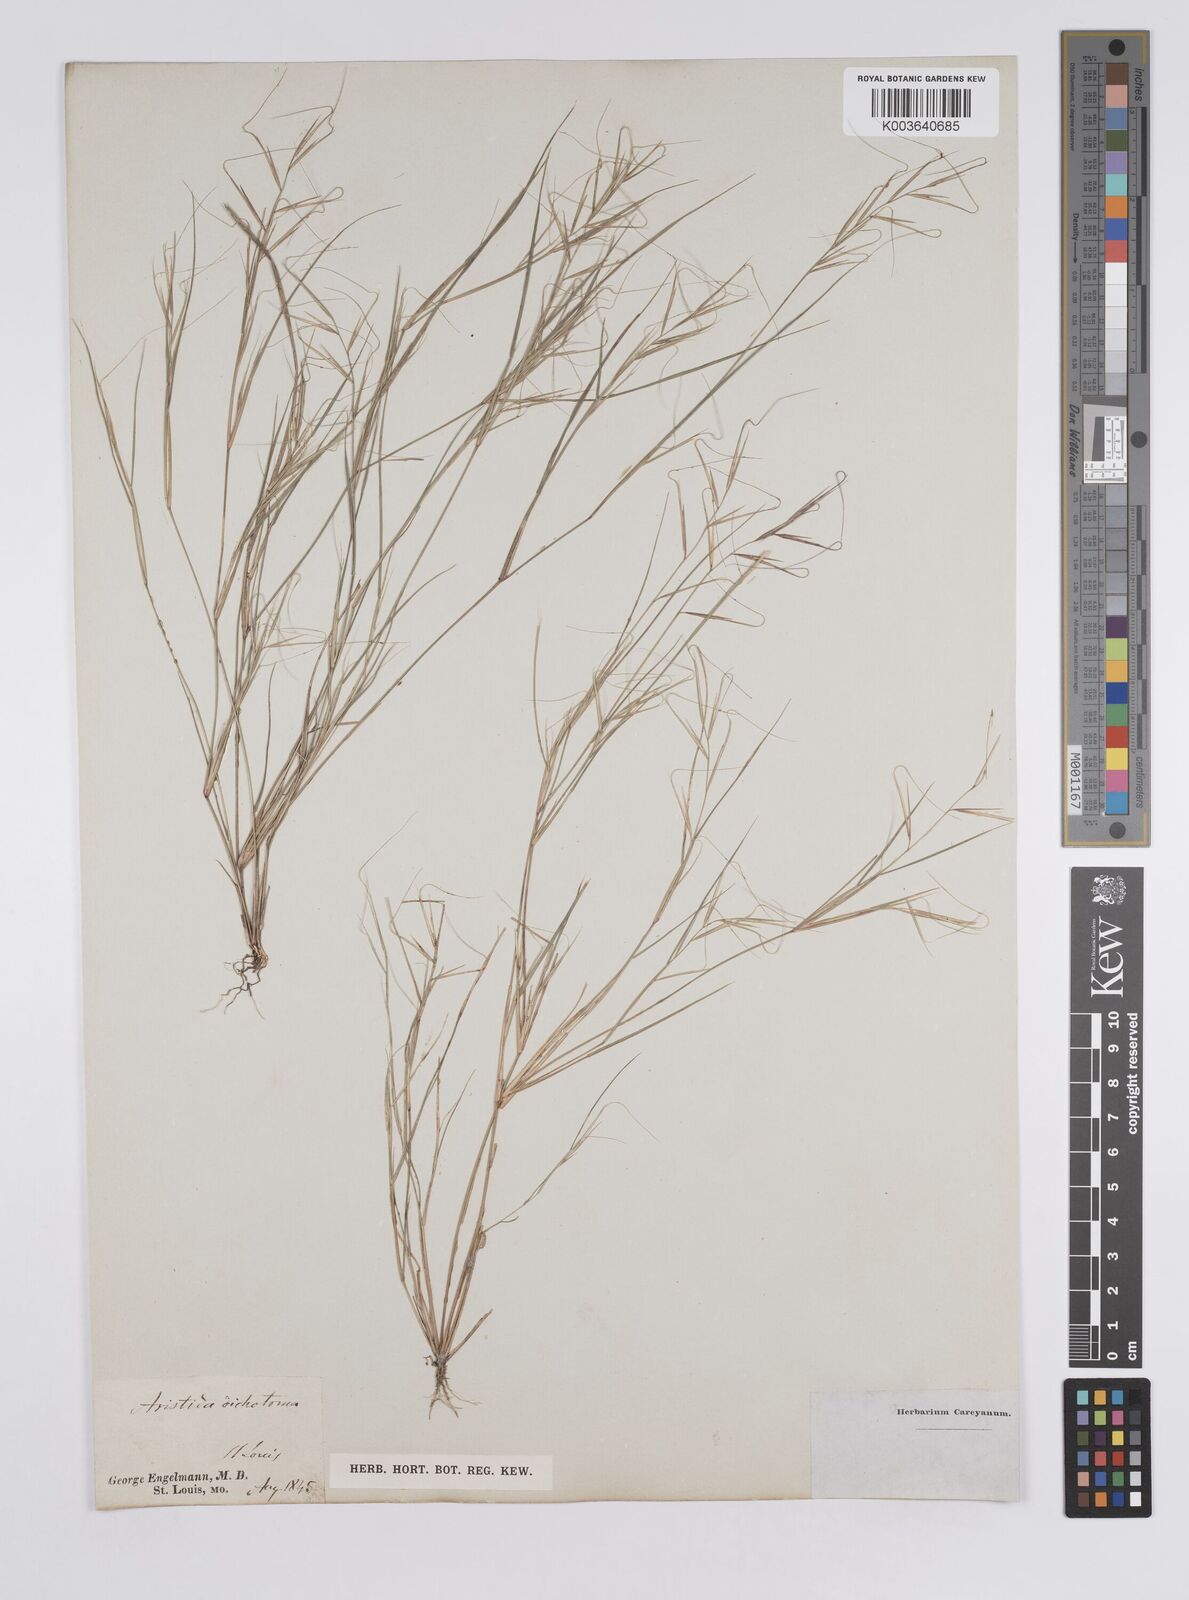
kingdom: Plantae
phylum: Tracheophyta
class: Liliopsida
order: Poales
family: Poaceae
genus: Aristida
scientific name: Aristida ramosissima
